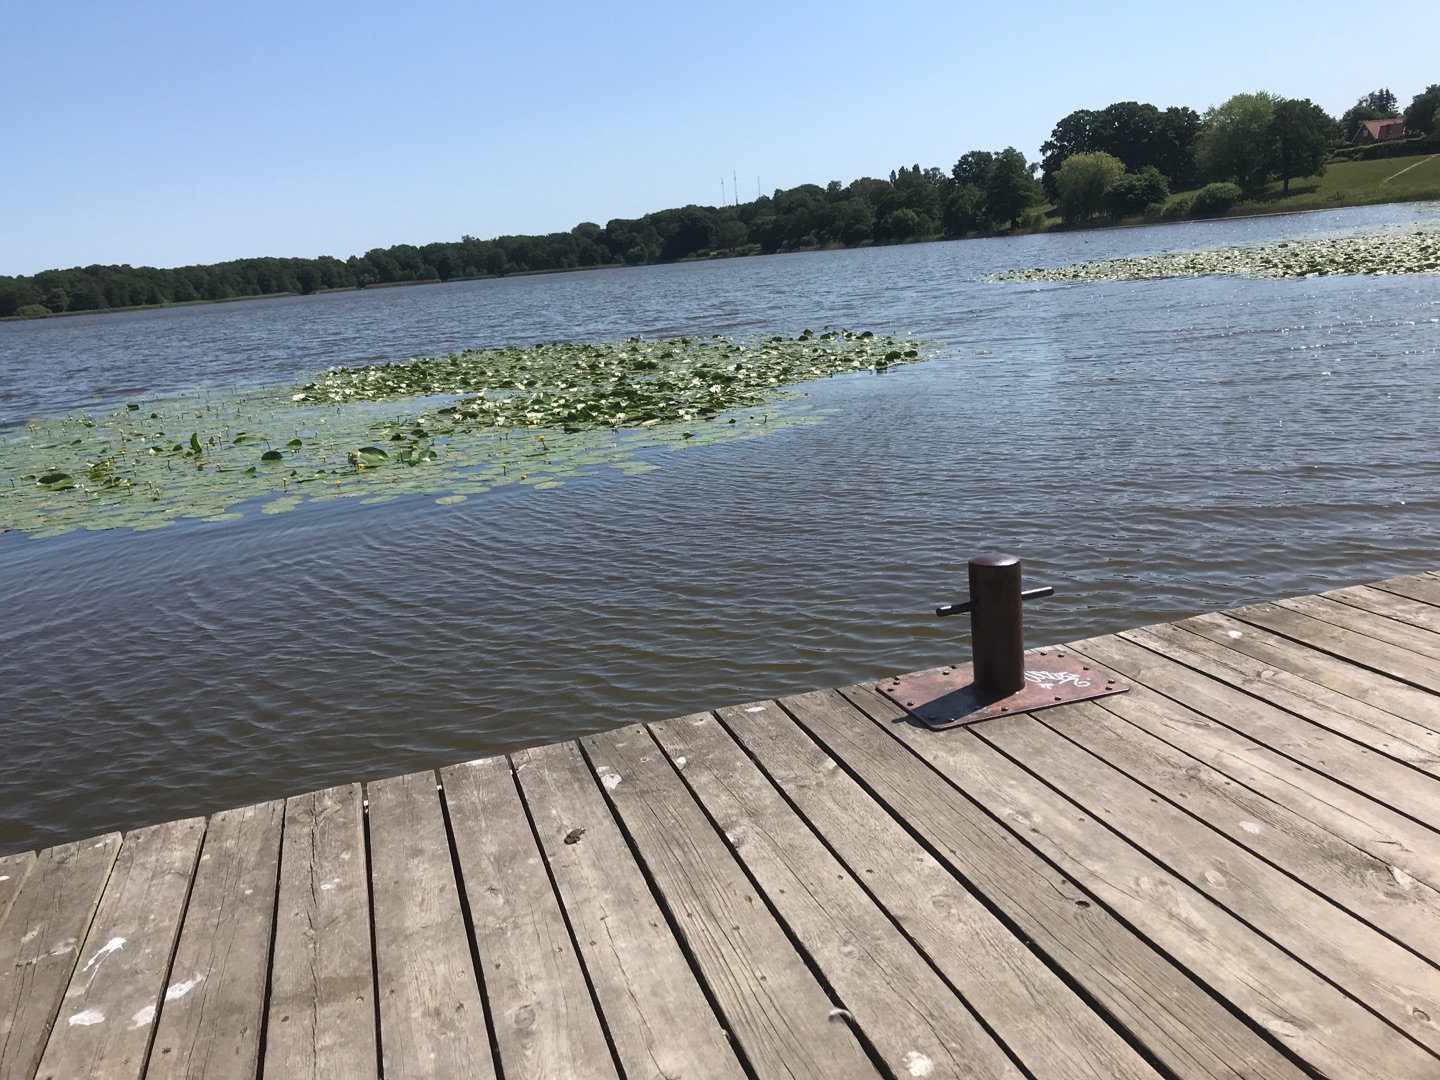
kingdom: Plantae
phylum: Tracheophyta
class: Magnoliopsida
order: Nymphaeales
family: Nymphaeaceae
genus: Nymphaea
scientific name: Nymphaea alba
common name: Hvid åkande
